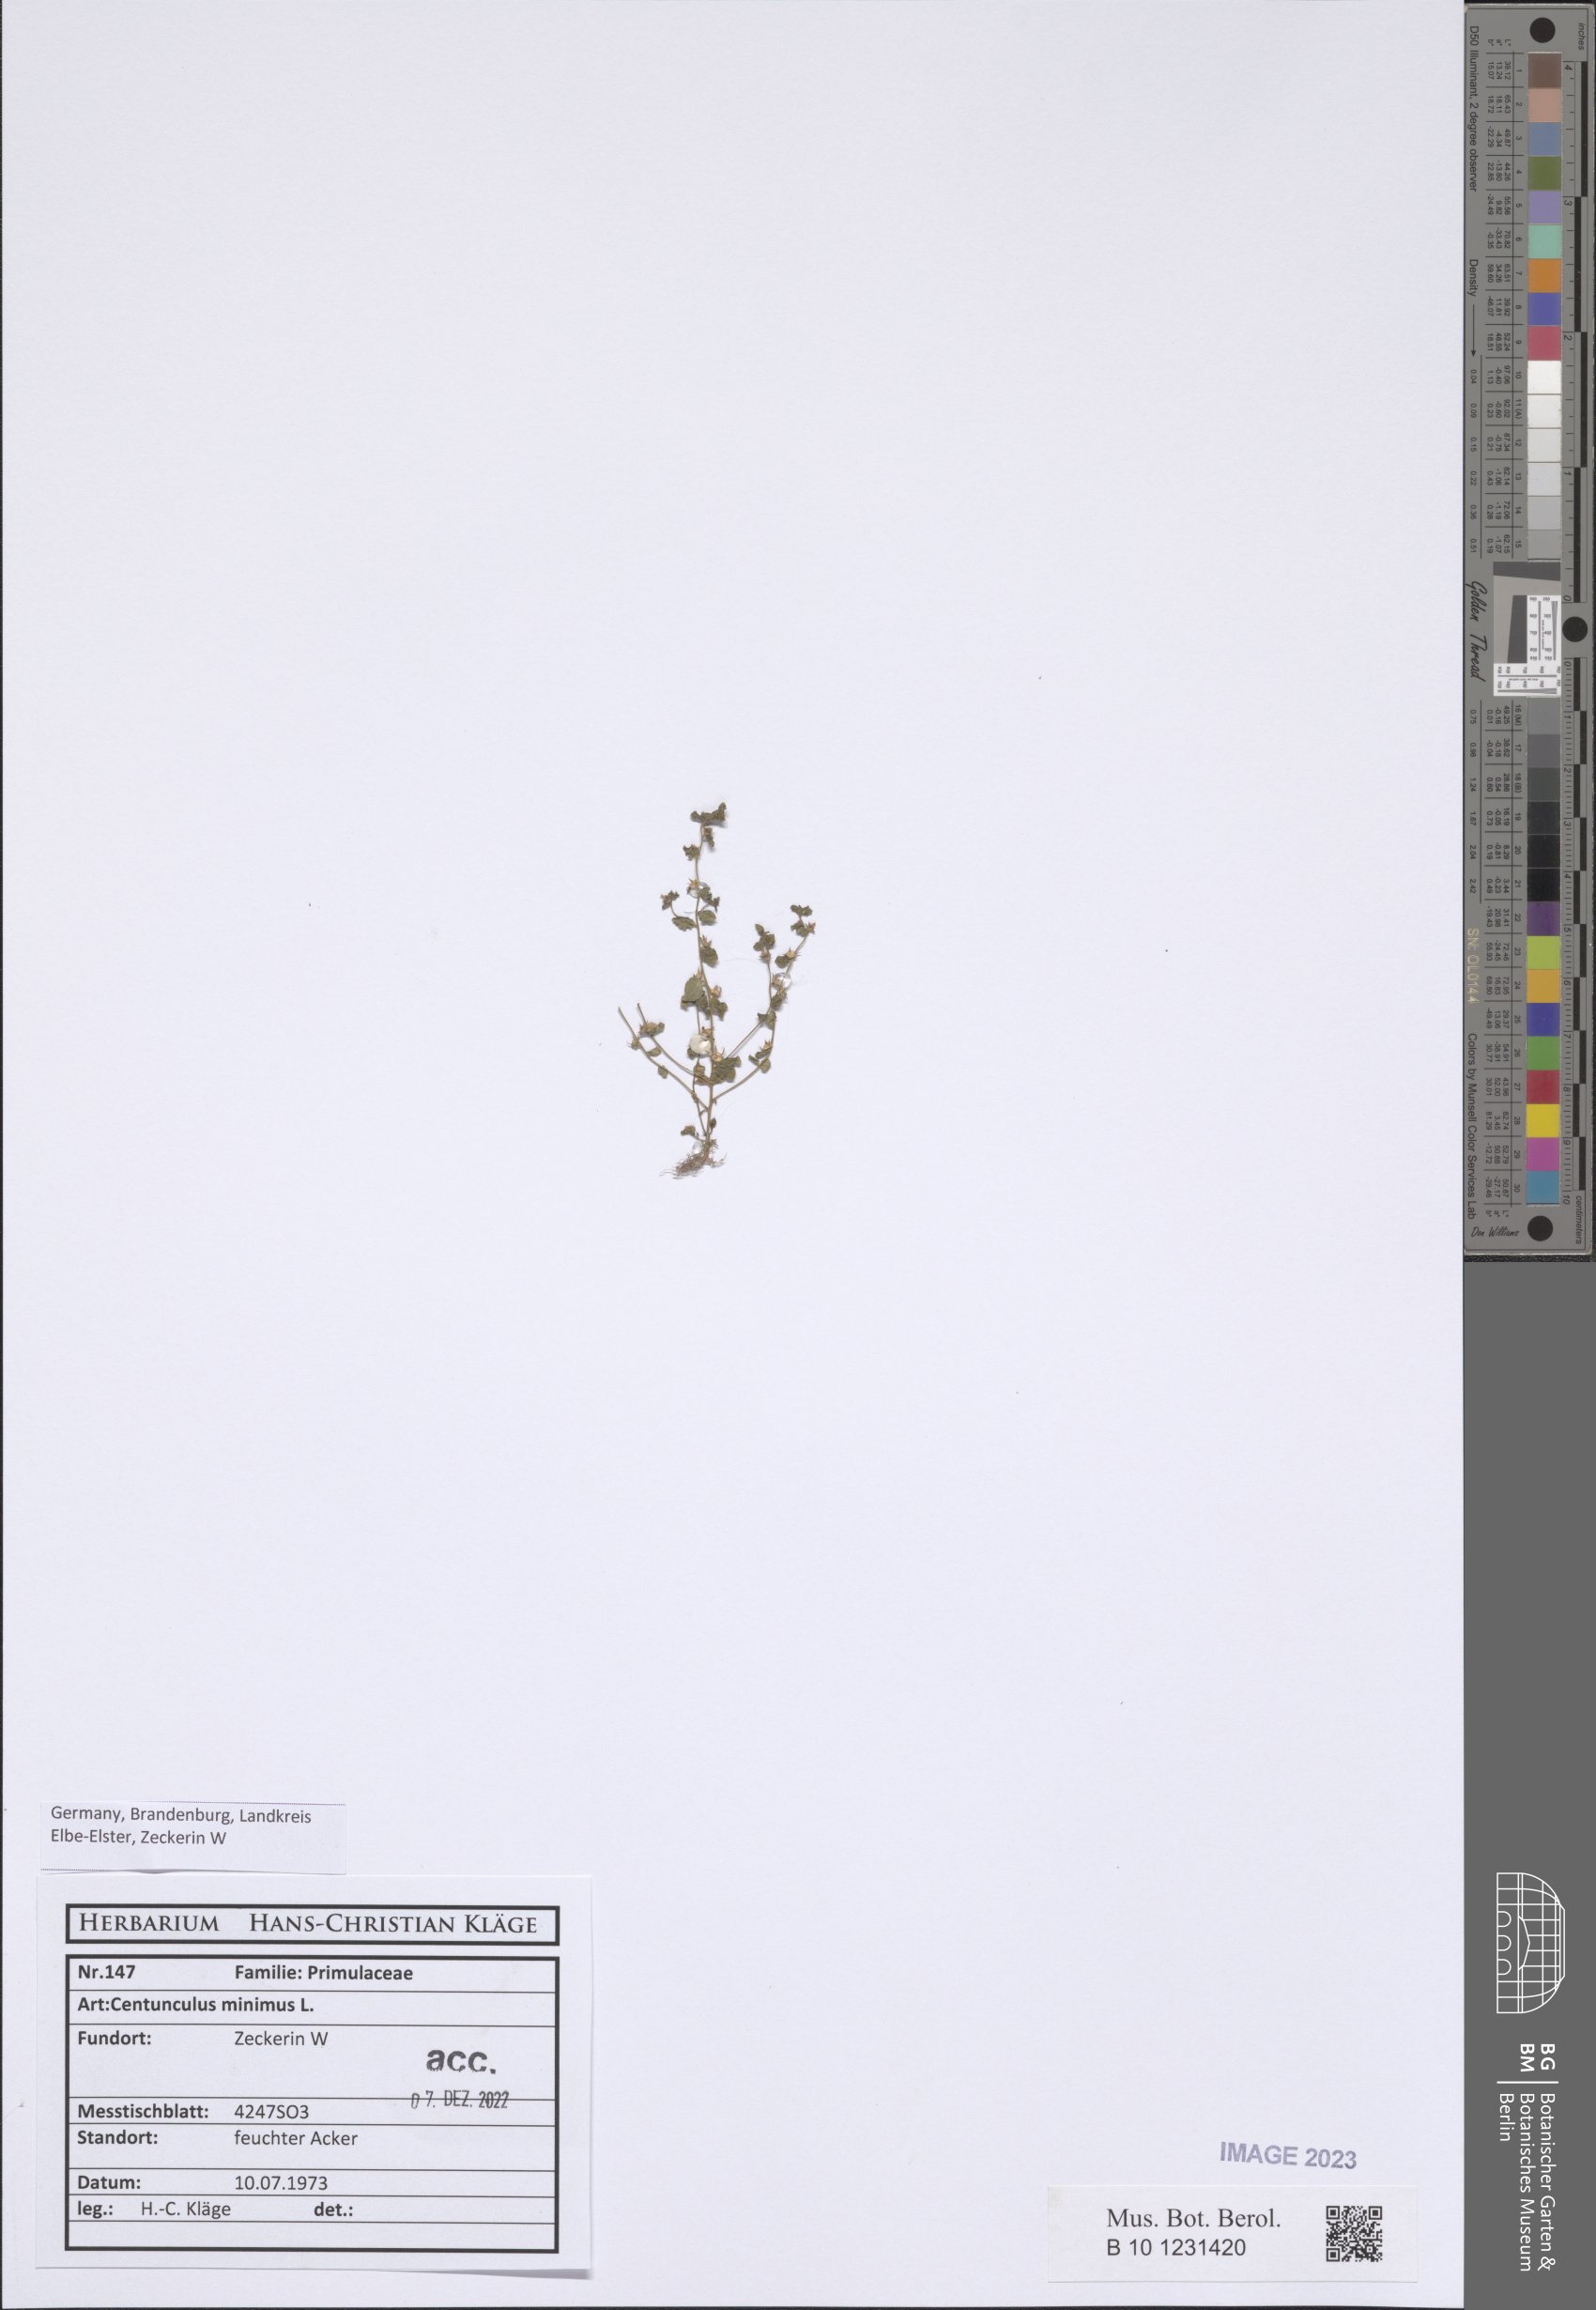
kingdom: Plantae
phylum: Tracheophyta
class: Magnoliopsida
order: Ericales
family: Primulaceae
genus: Lysimachia
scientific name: Lysimachia minima
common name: Chaffweed
